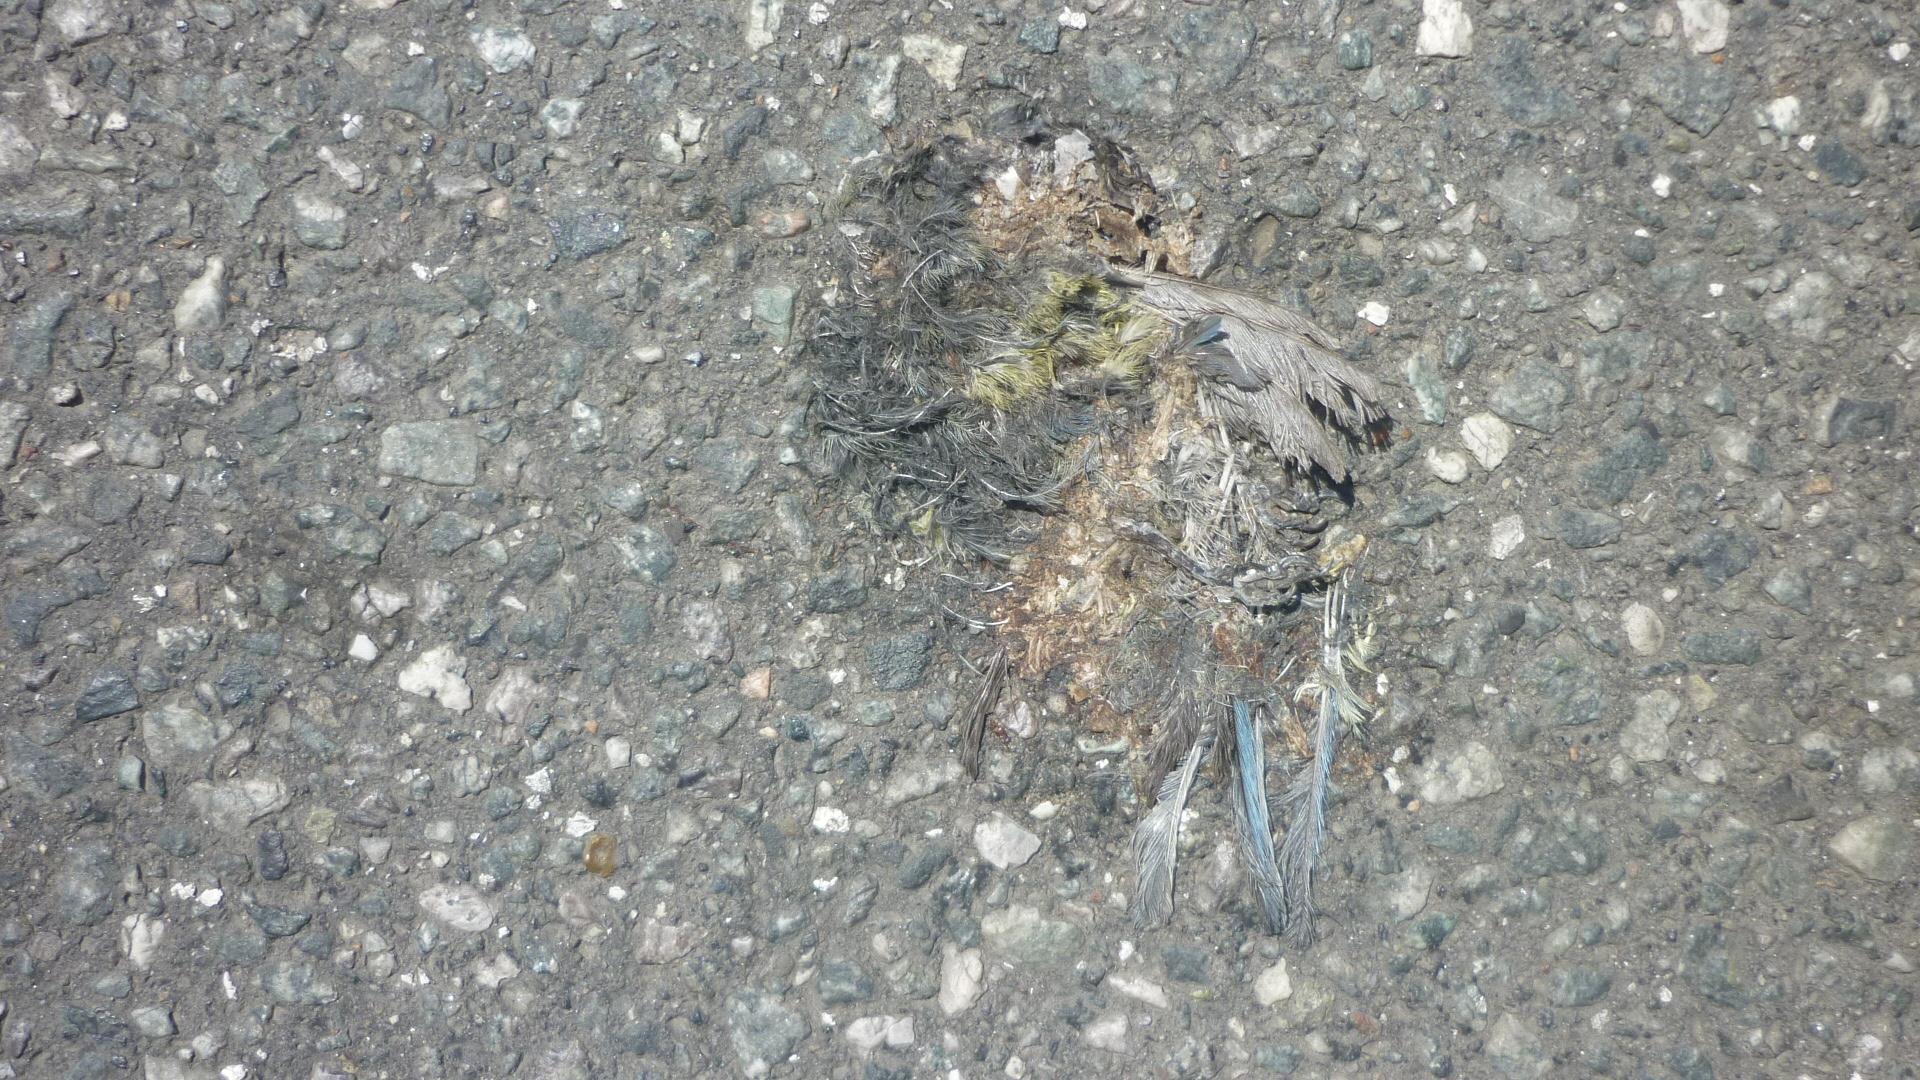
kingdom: Animalia
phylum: Chordata
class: Aves
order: Passeriformes
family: Paridae
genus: Cyanistes
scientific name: Cyanistes caeruleus
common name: Eurasian blue tit
